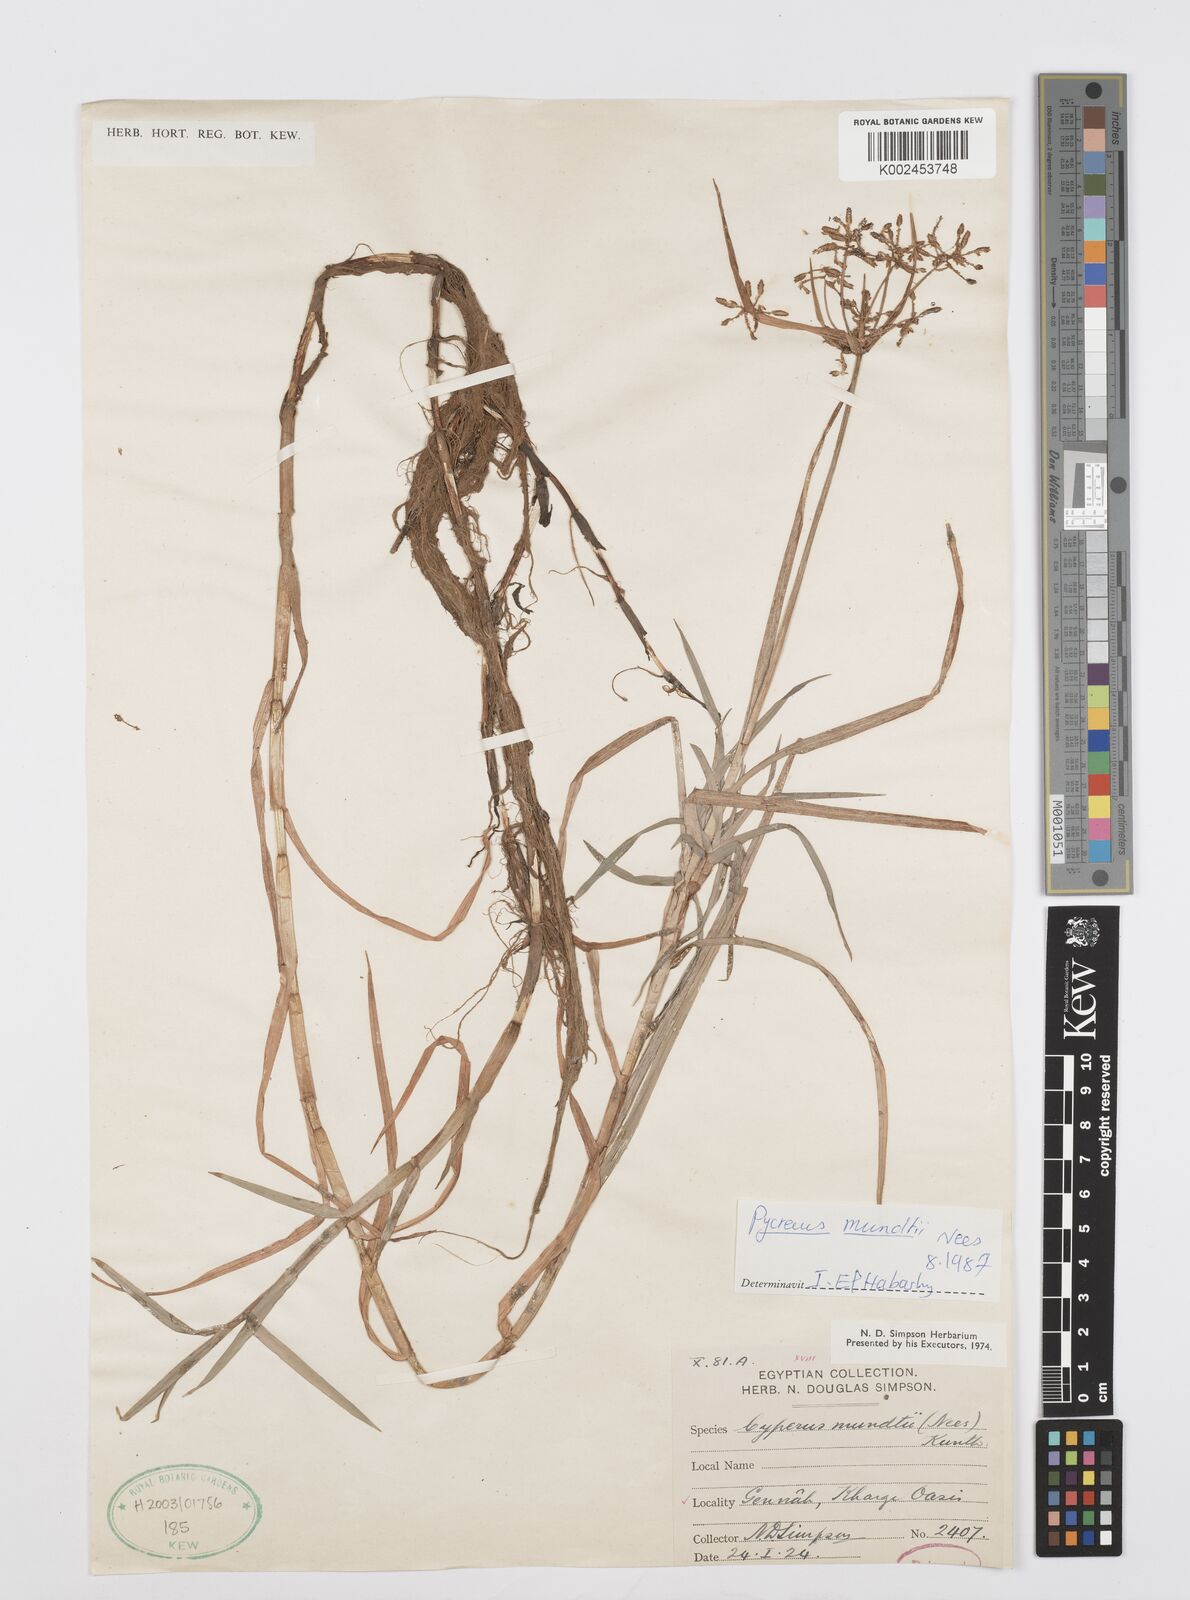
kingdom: Plantae
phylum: Tracheophyta
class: Liliopsida
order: Poales
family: Cyperaceae
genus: Cyperus
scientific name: Cyperus mundii
